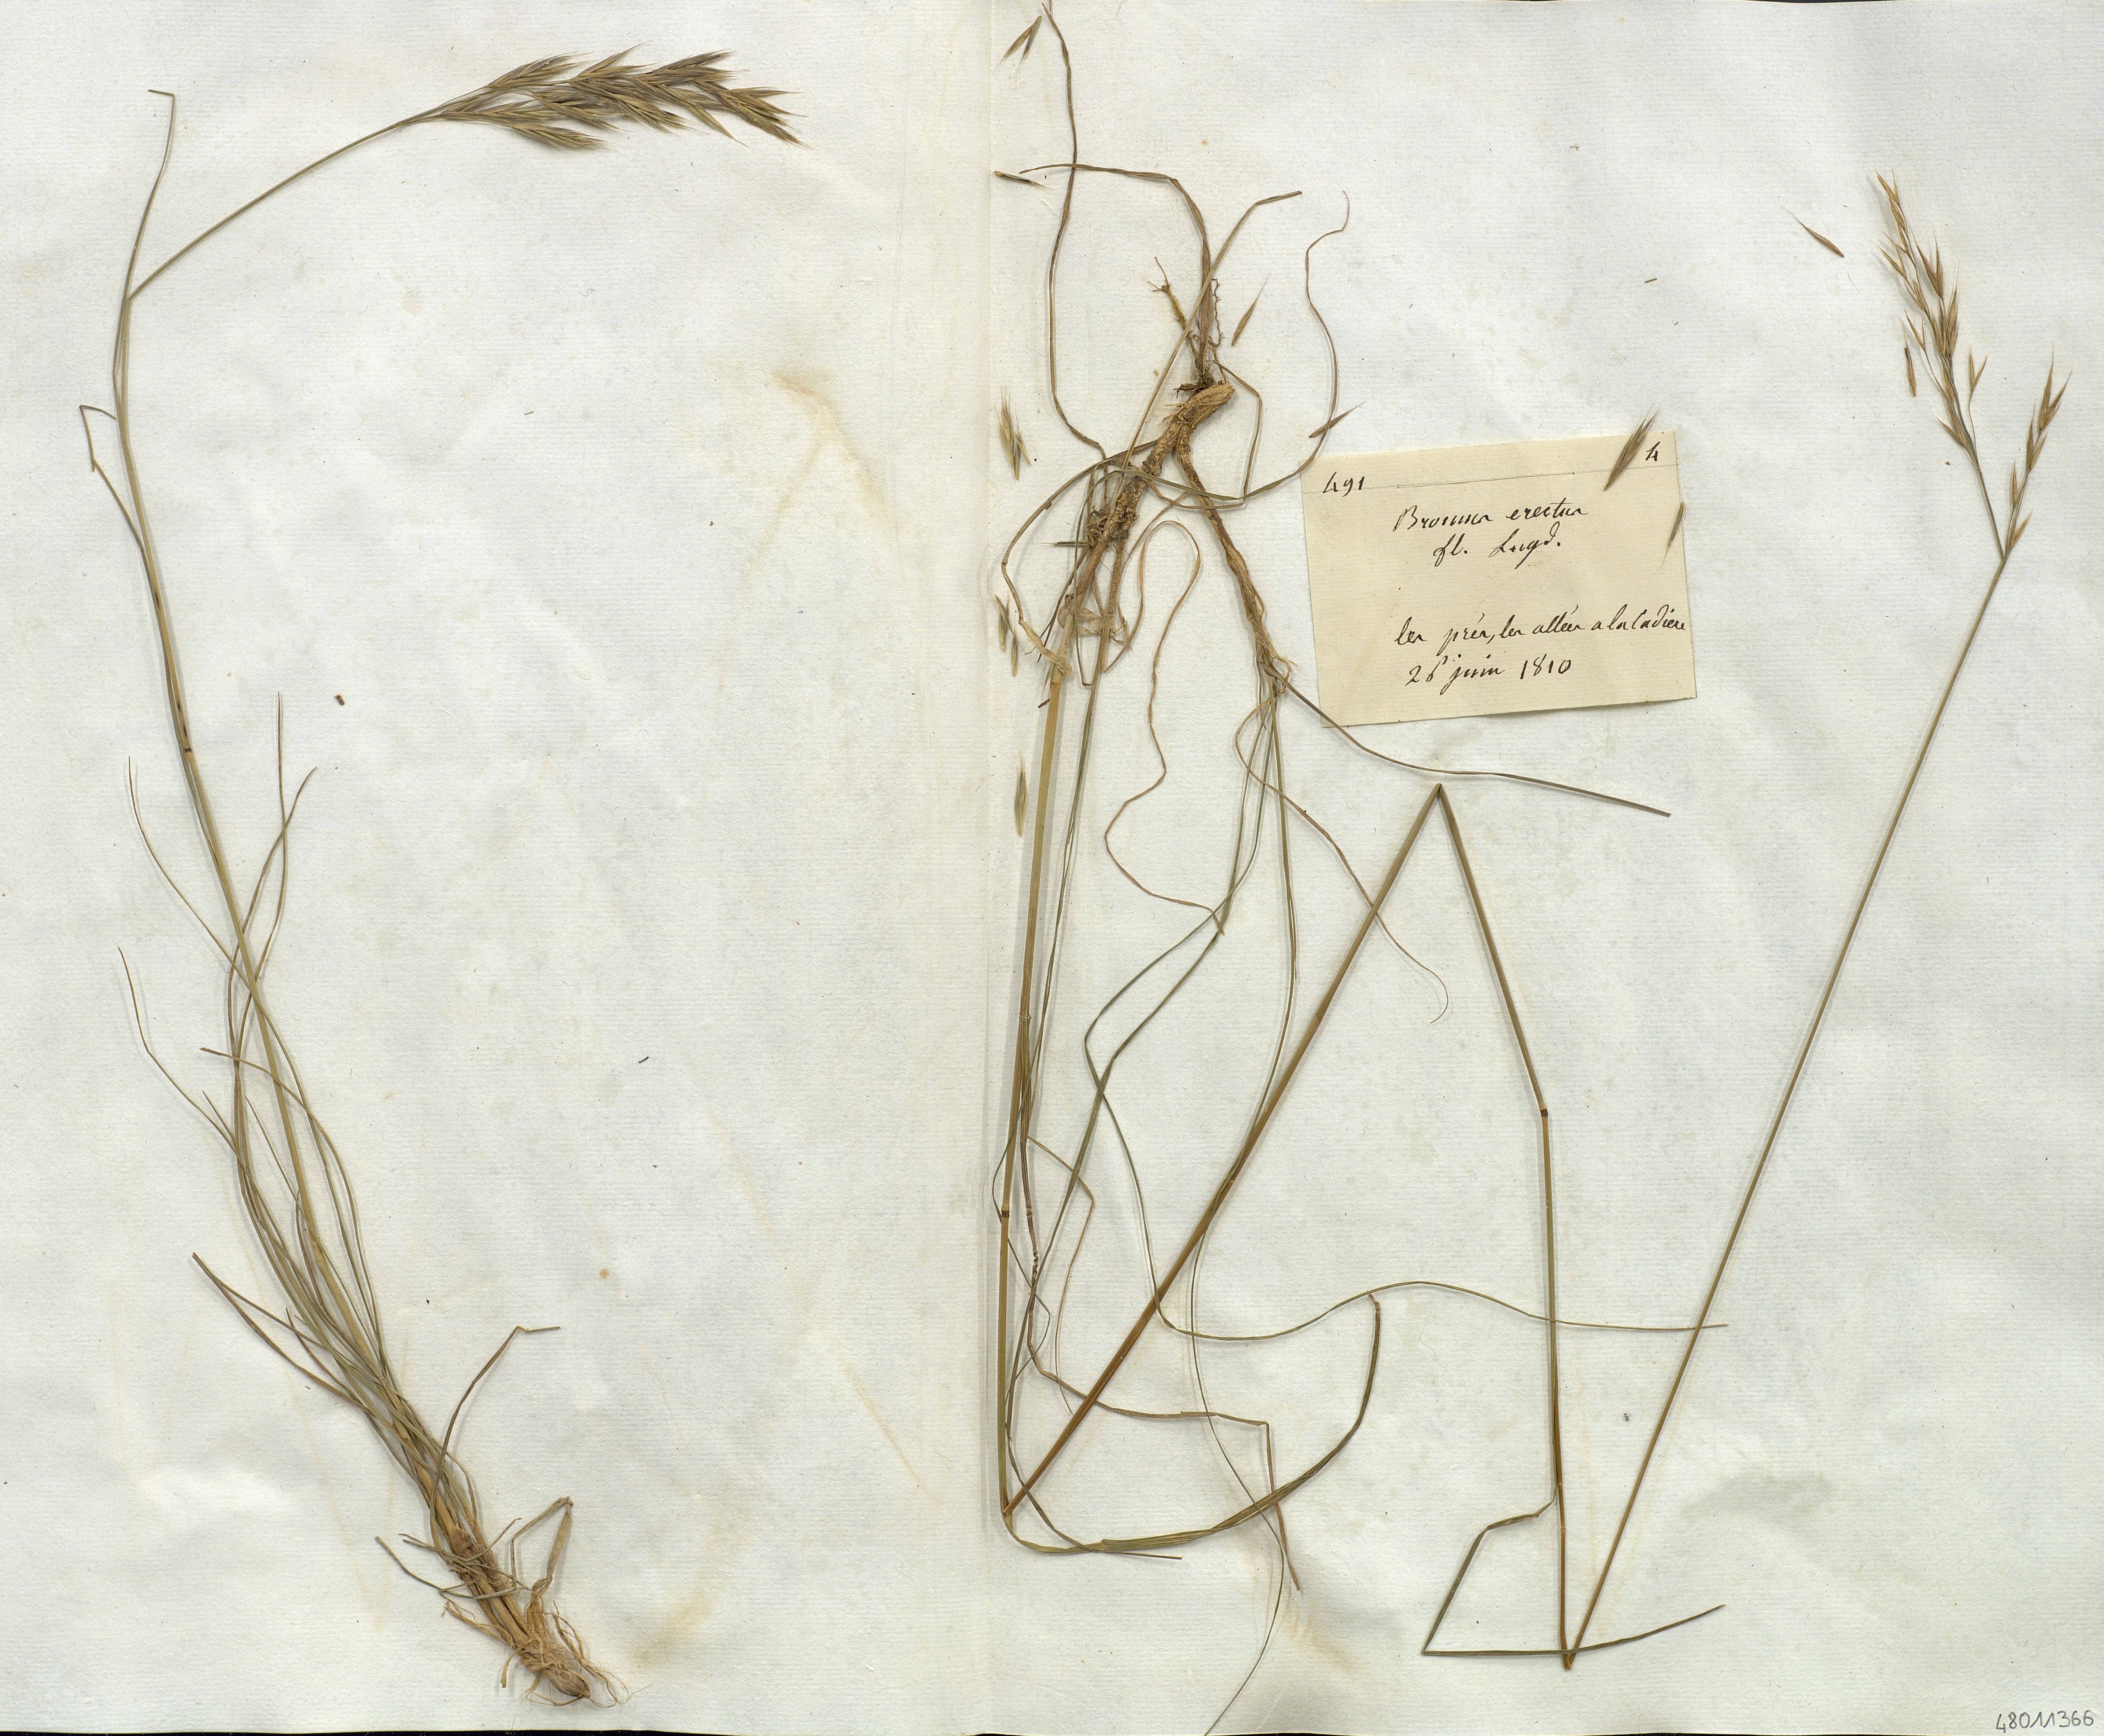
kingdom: Plantae
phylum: Tracheophyta
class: Liliopsida
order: Poales
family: Poaceae
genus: Bromus
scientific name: Bromus erectus
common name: Erect brome
